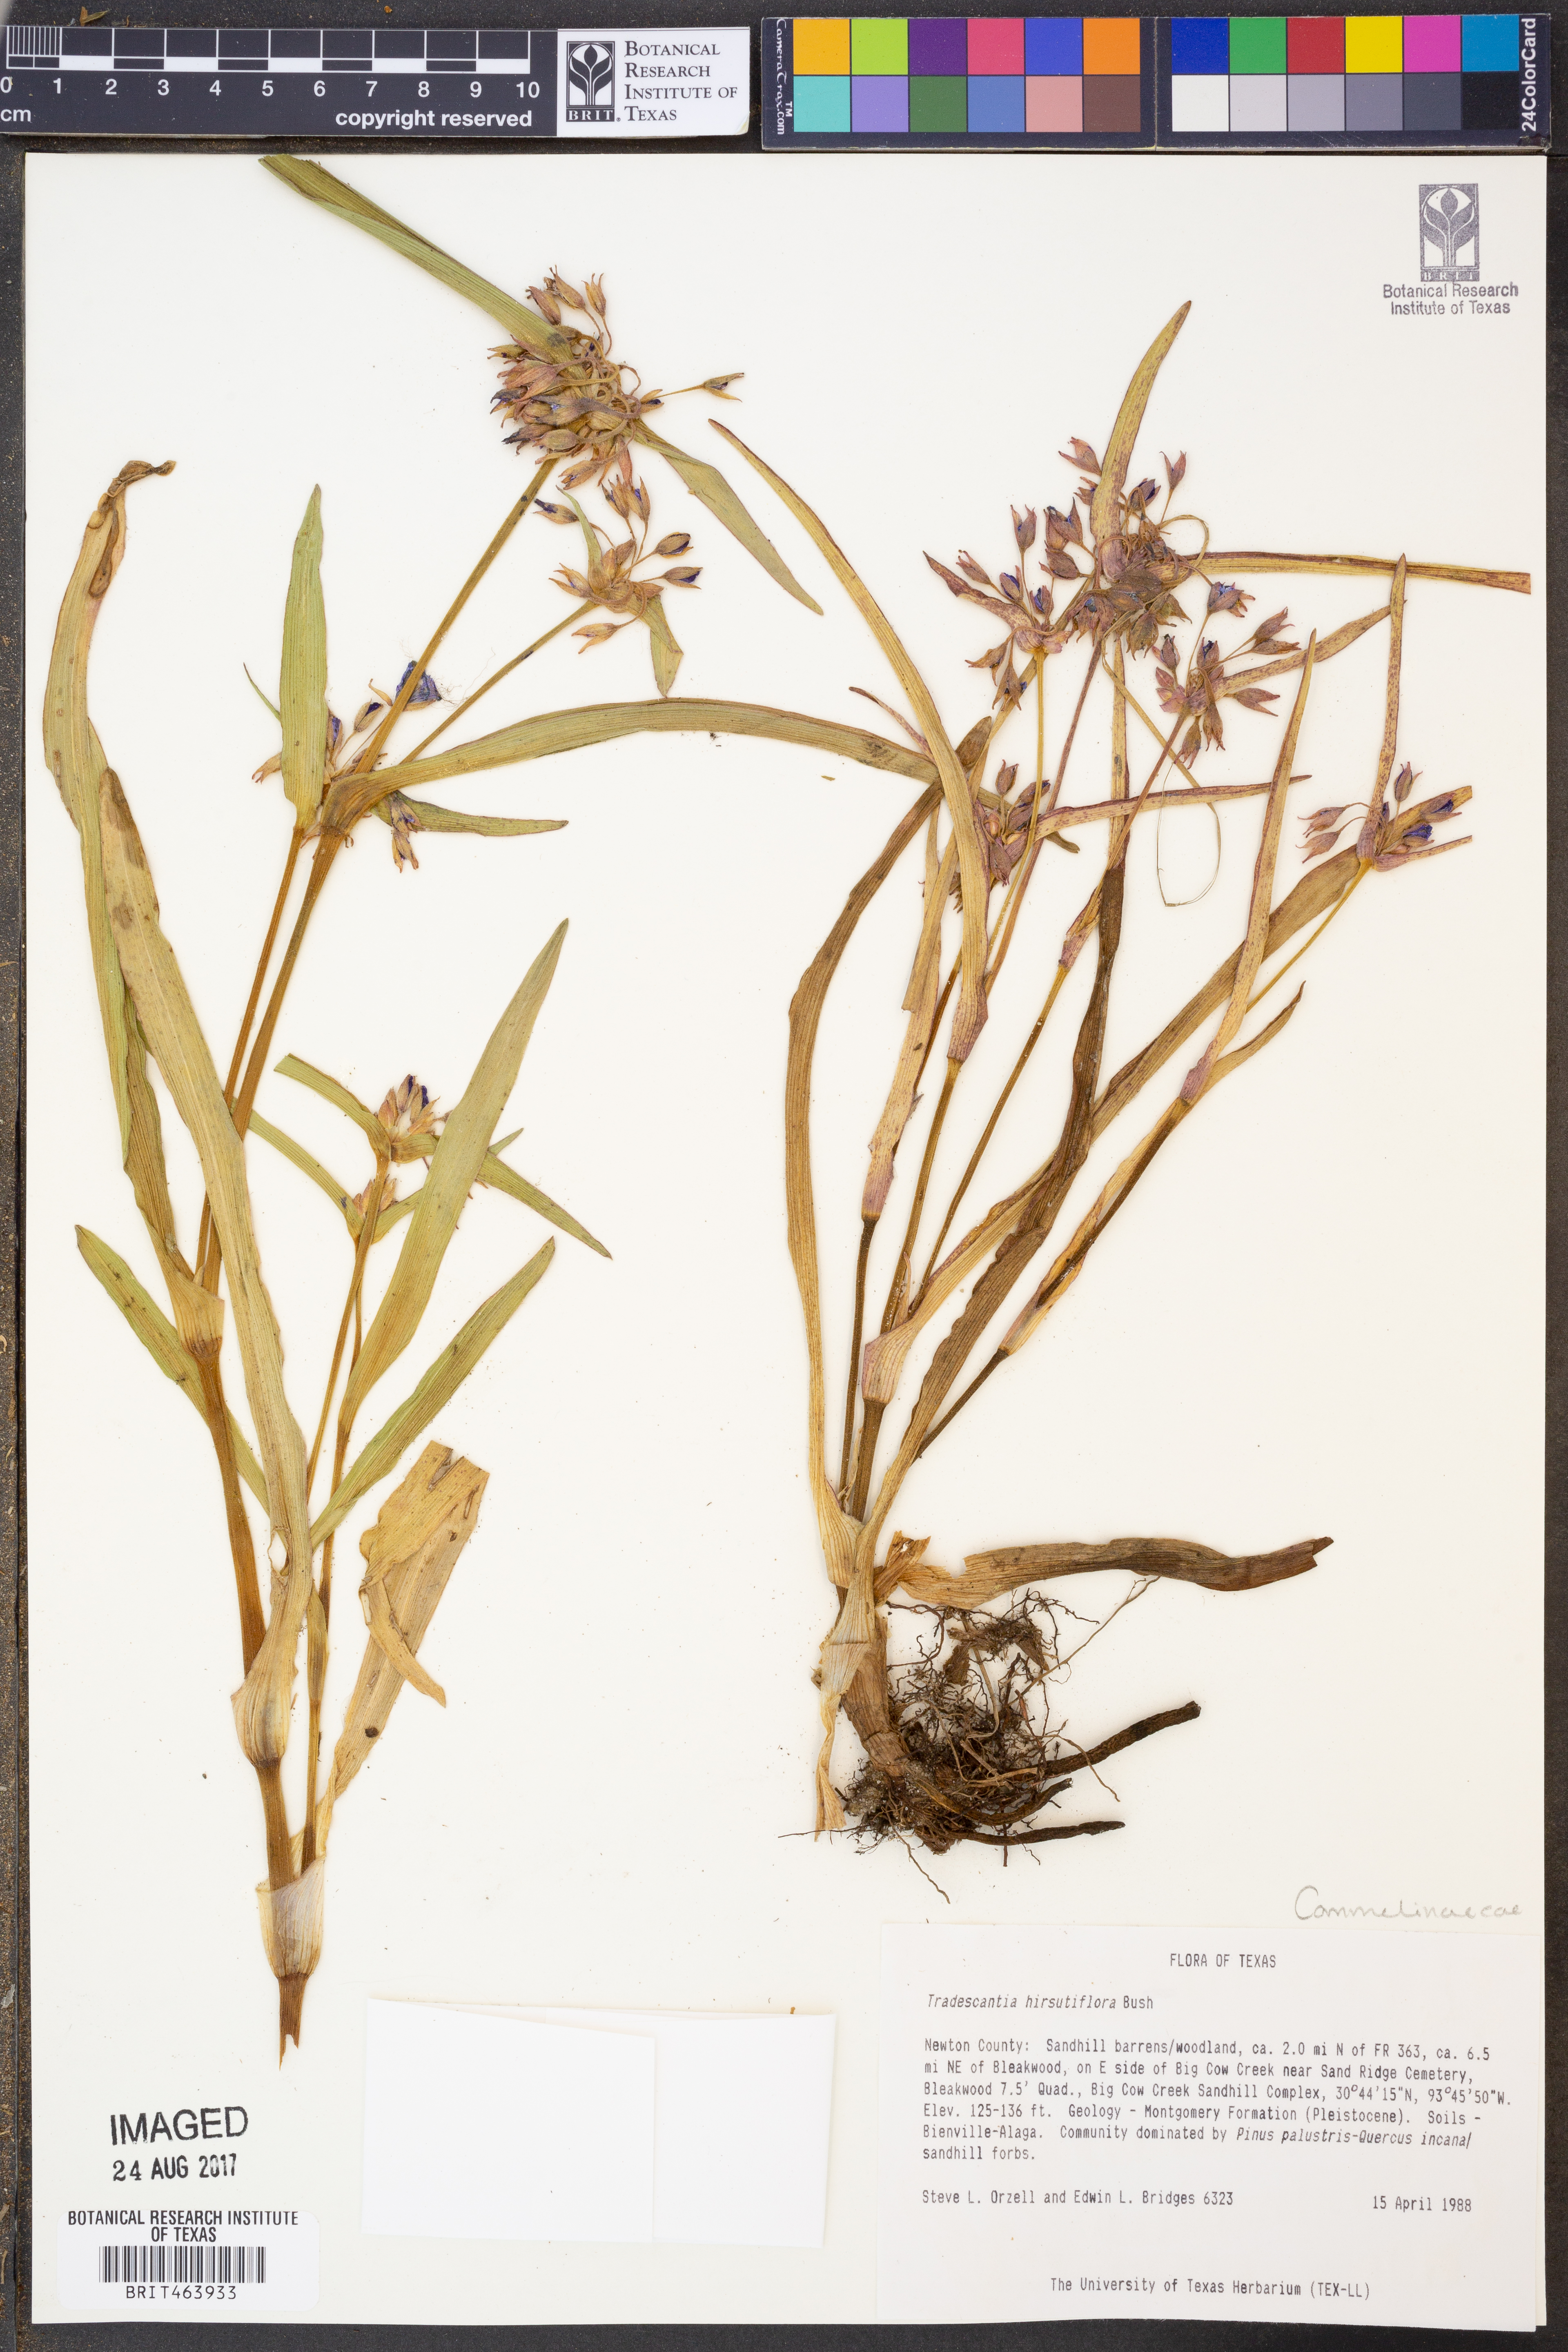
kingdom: Plantae
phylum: Tracheophyta
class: Liliopsida
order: Commelinales
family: Commelinaceae
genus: Tradescantia
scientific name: Tradescantia hirsutiflora
